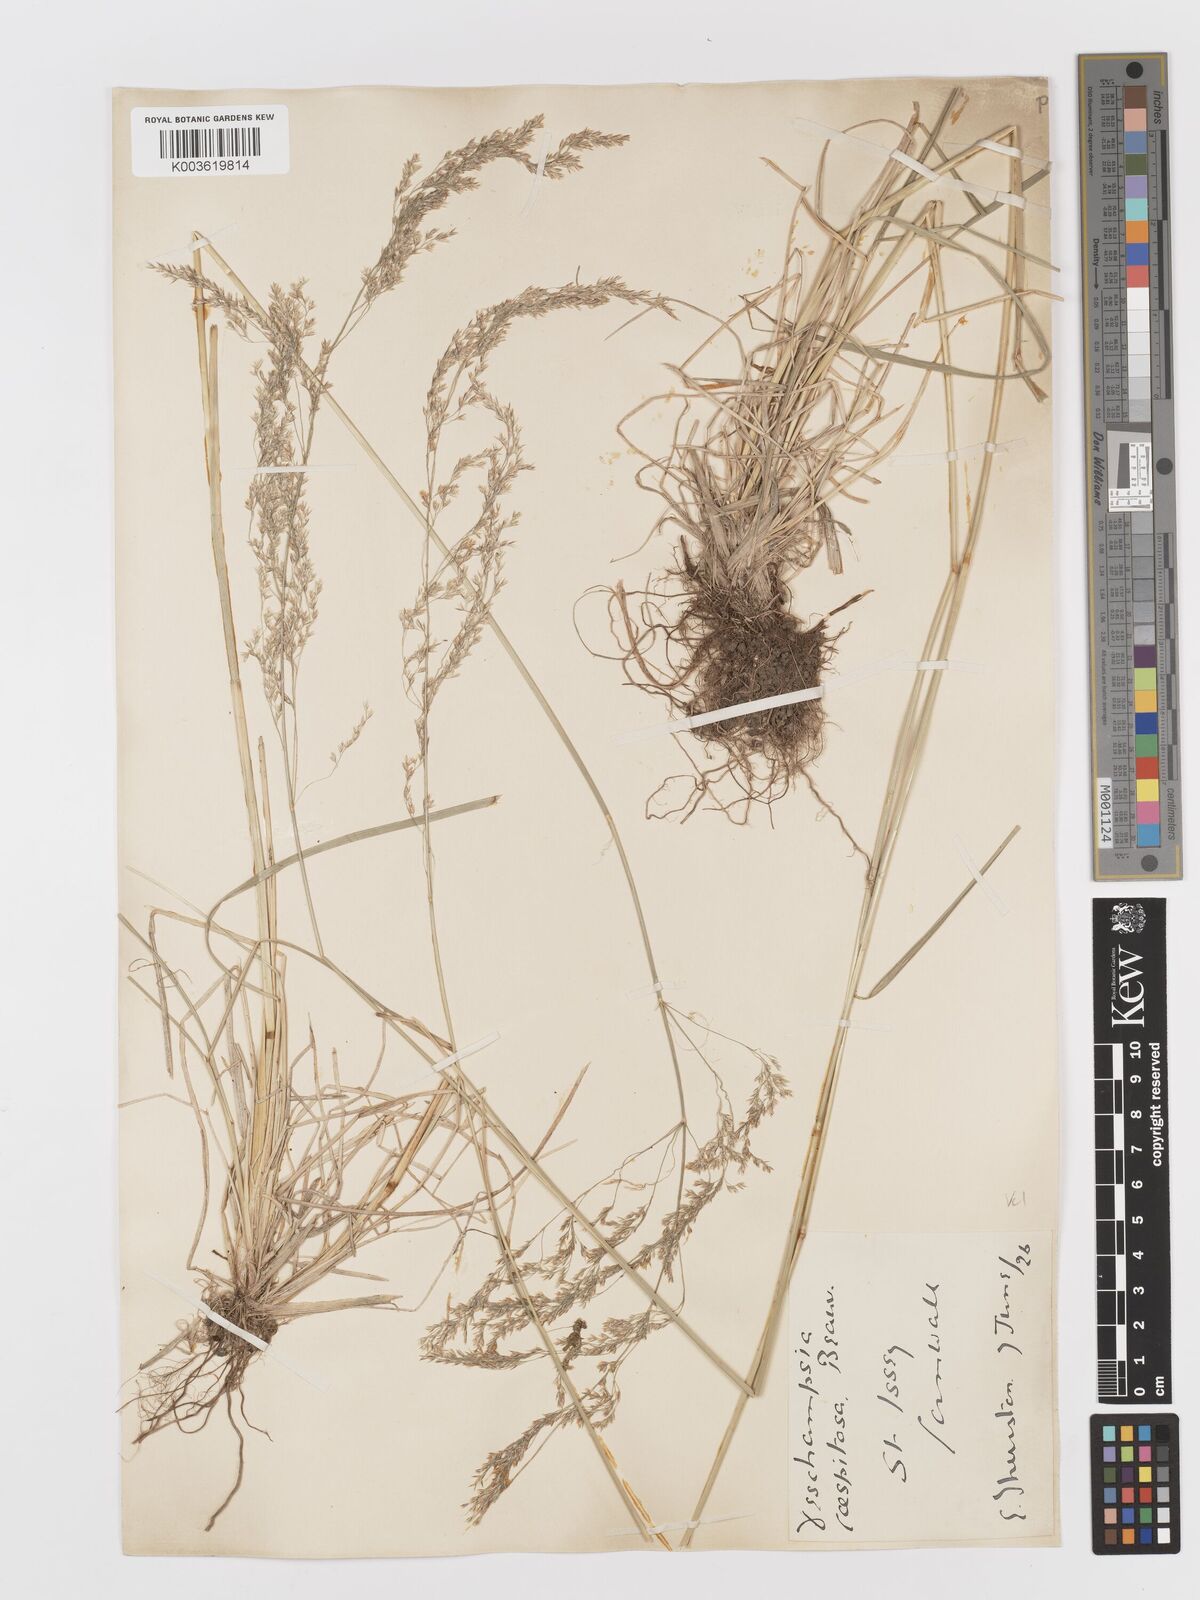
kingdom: Plantae
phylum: Tracheophyta
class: Liliopsida
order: Poales
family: Poaceae
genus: Deschampsia
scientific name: Deschampsia cespitosa
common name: Tufted hair-grass
